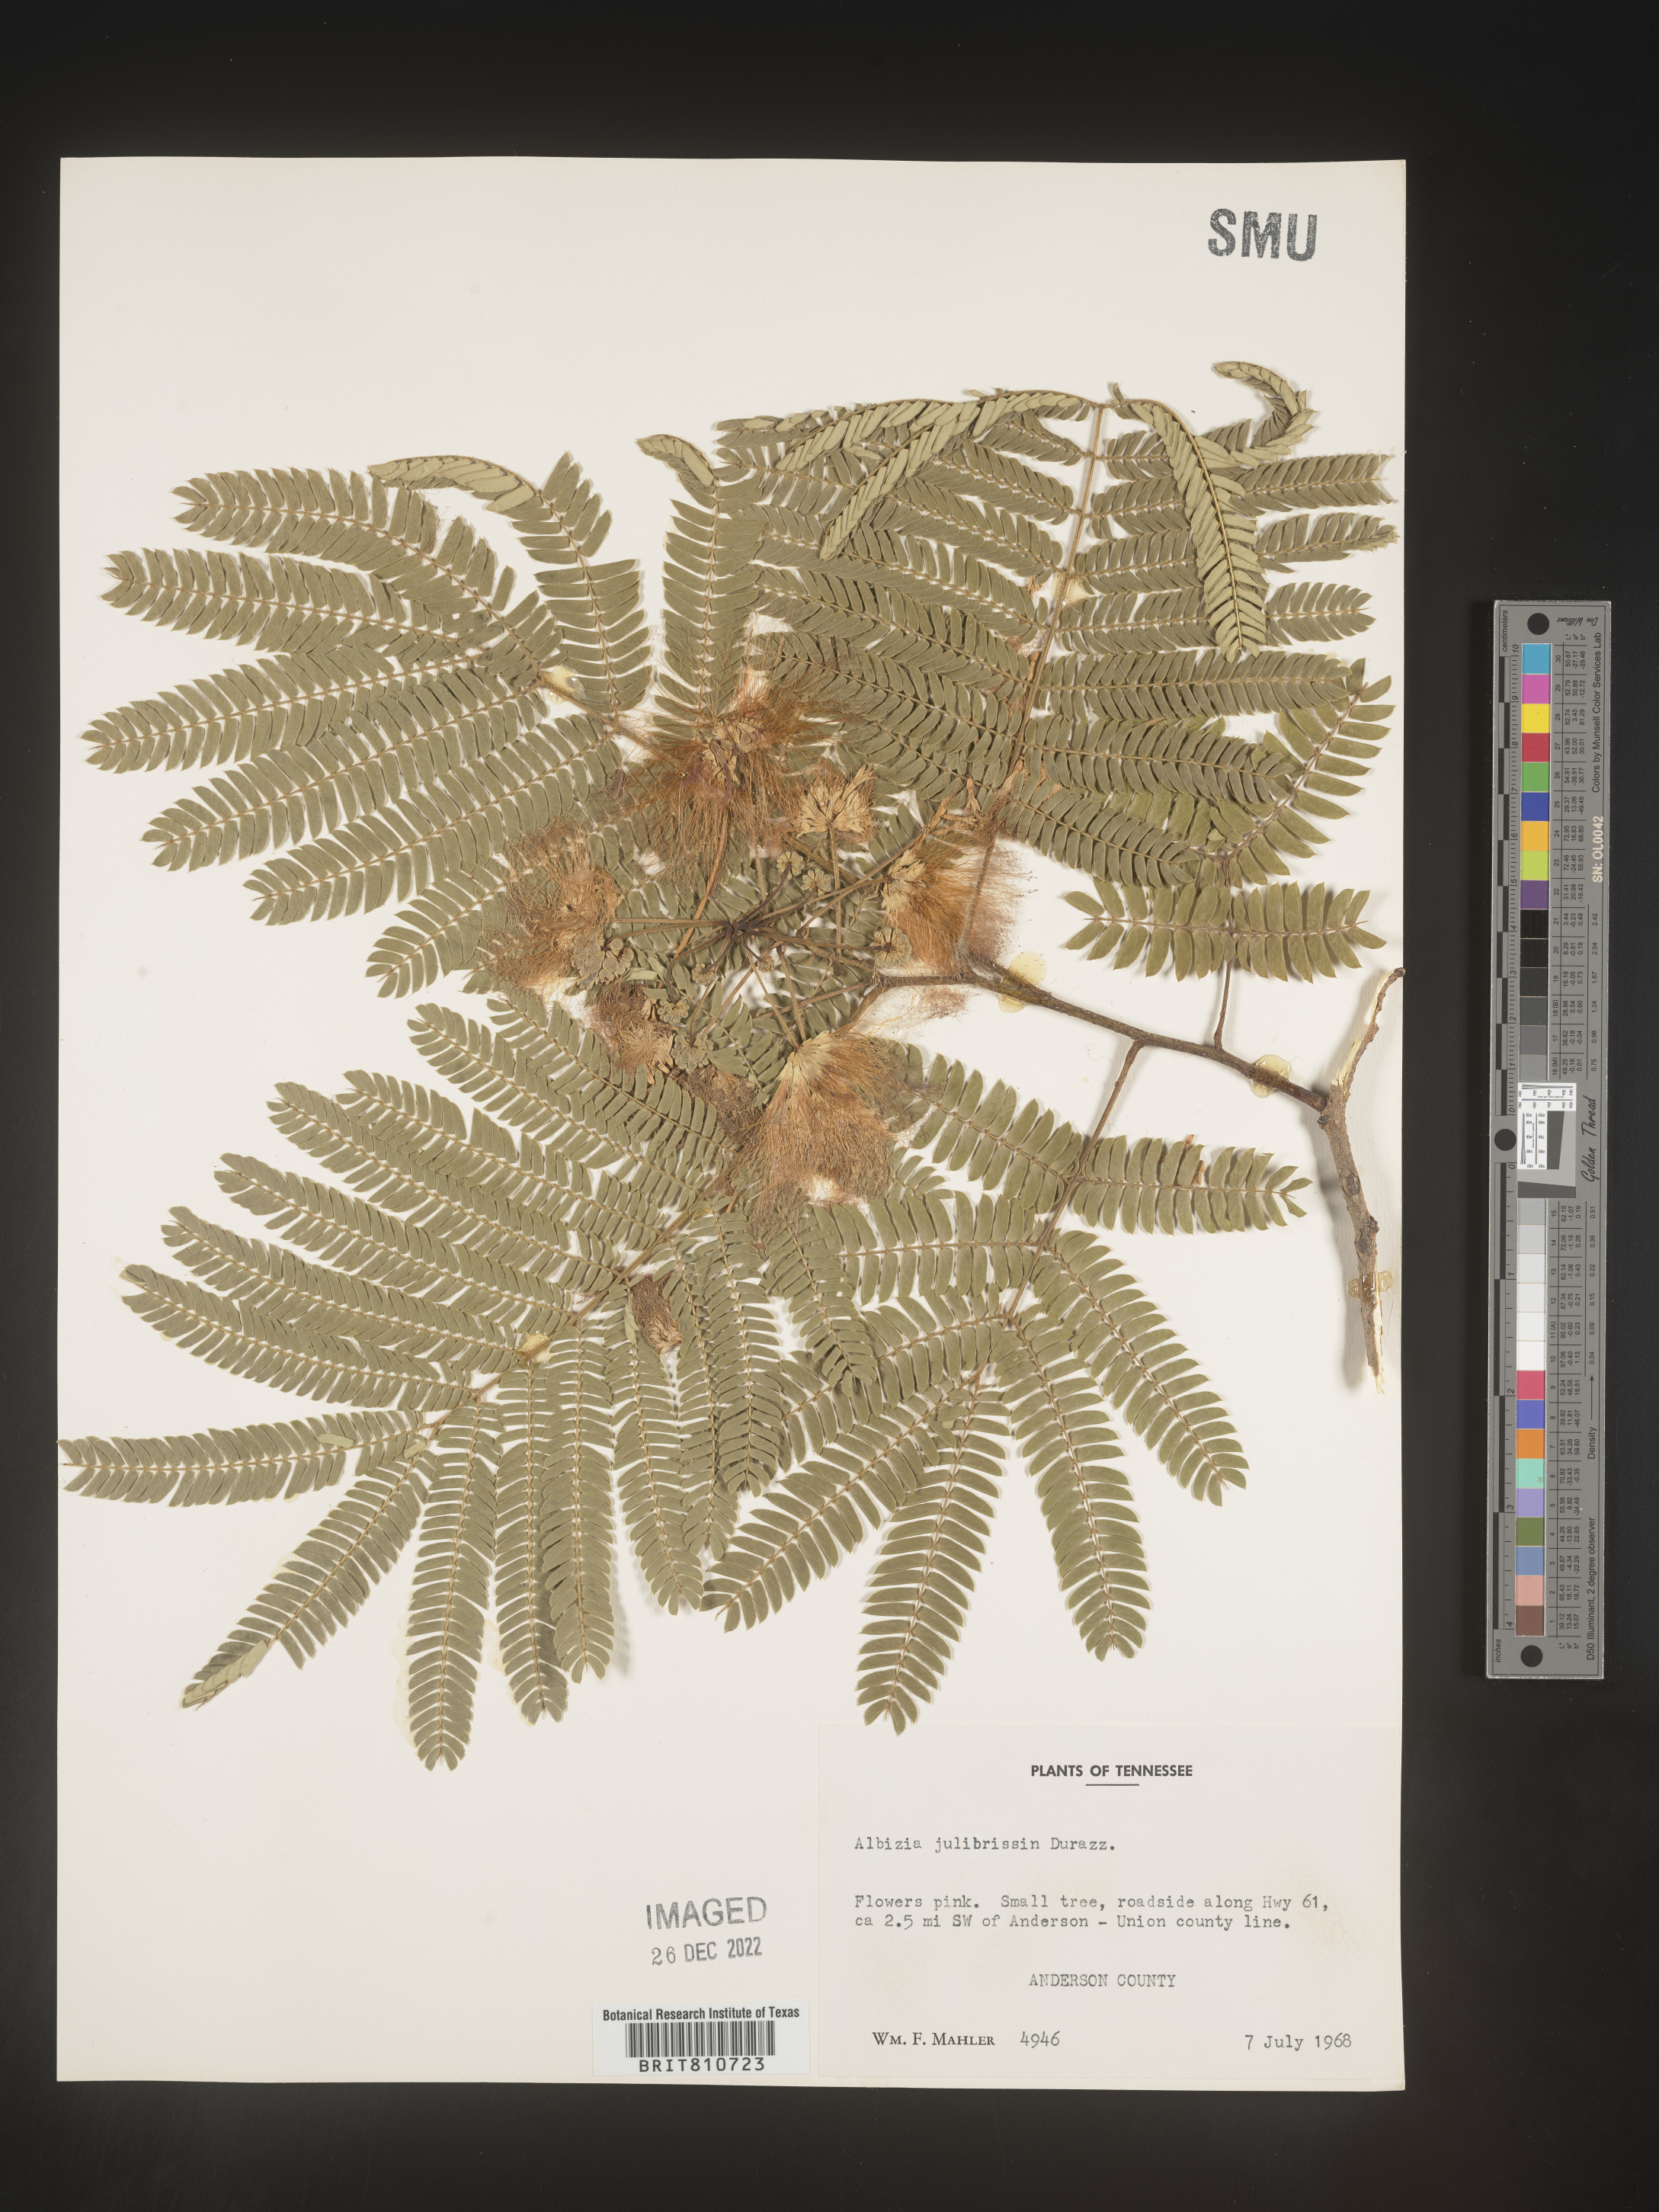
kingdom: Plantae
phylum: Tracheophyta
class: Magnoliopsida
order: Fabales
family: Fabaceae
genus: Albizia
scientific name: Albizia
